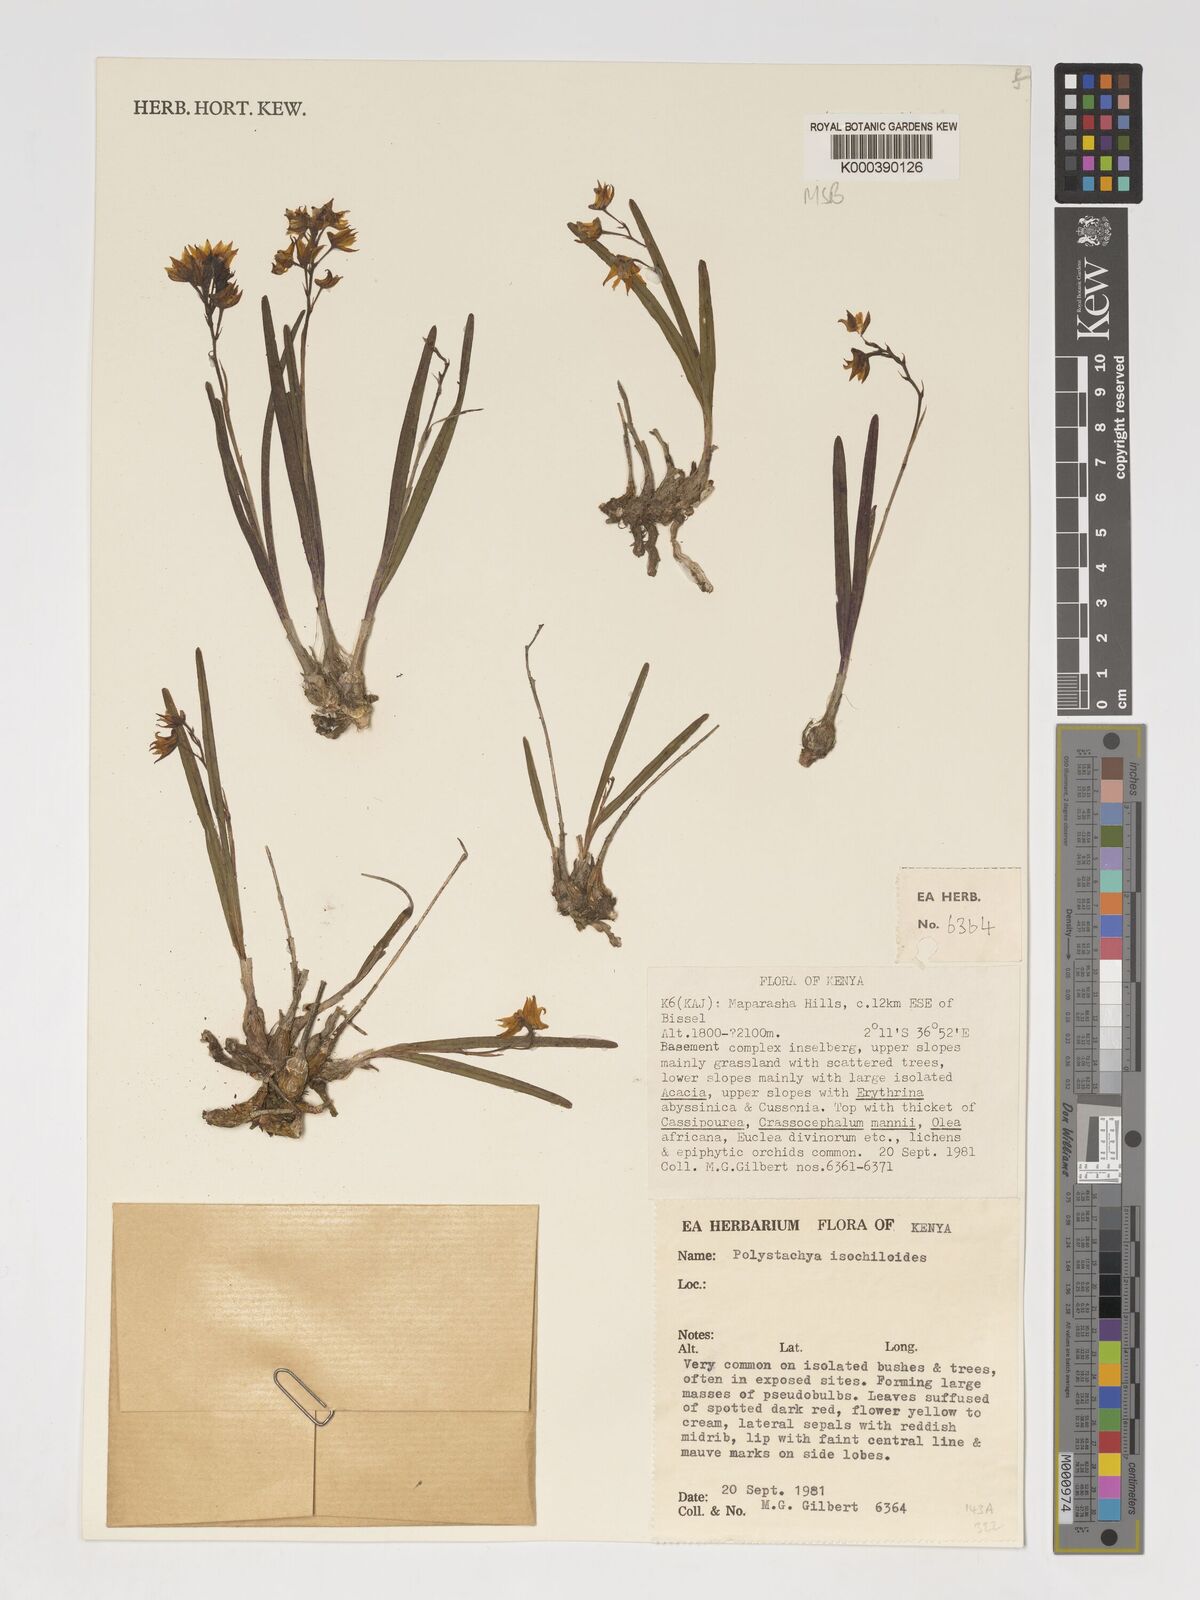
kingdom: Plantae
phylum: Tracheophyta
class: Liliopsida
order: Asparagales
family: Orchidaceae
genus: Polystachya
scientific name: Polystachya isochiloides
